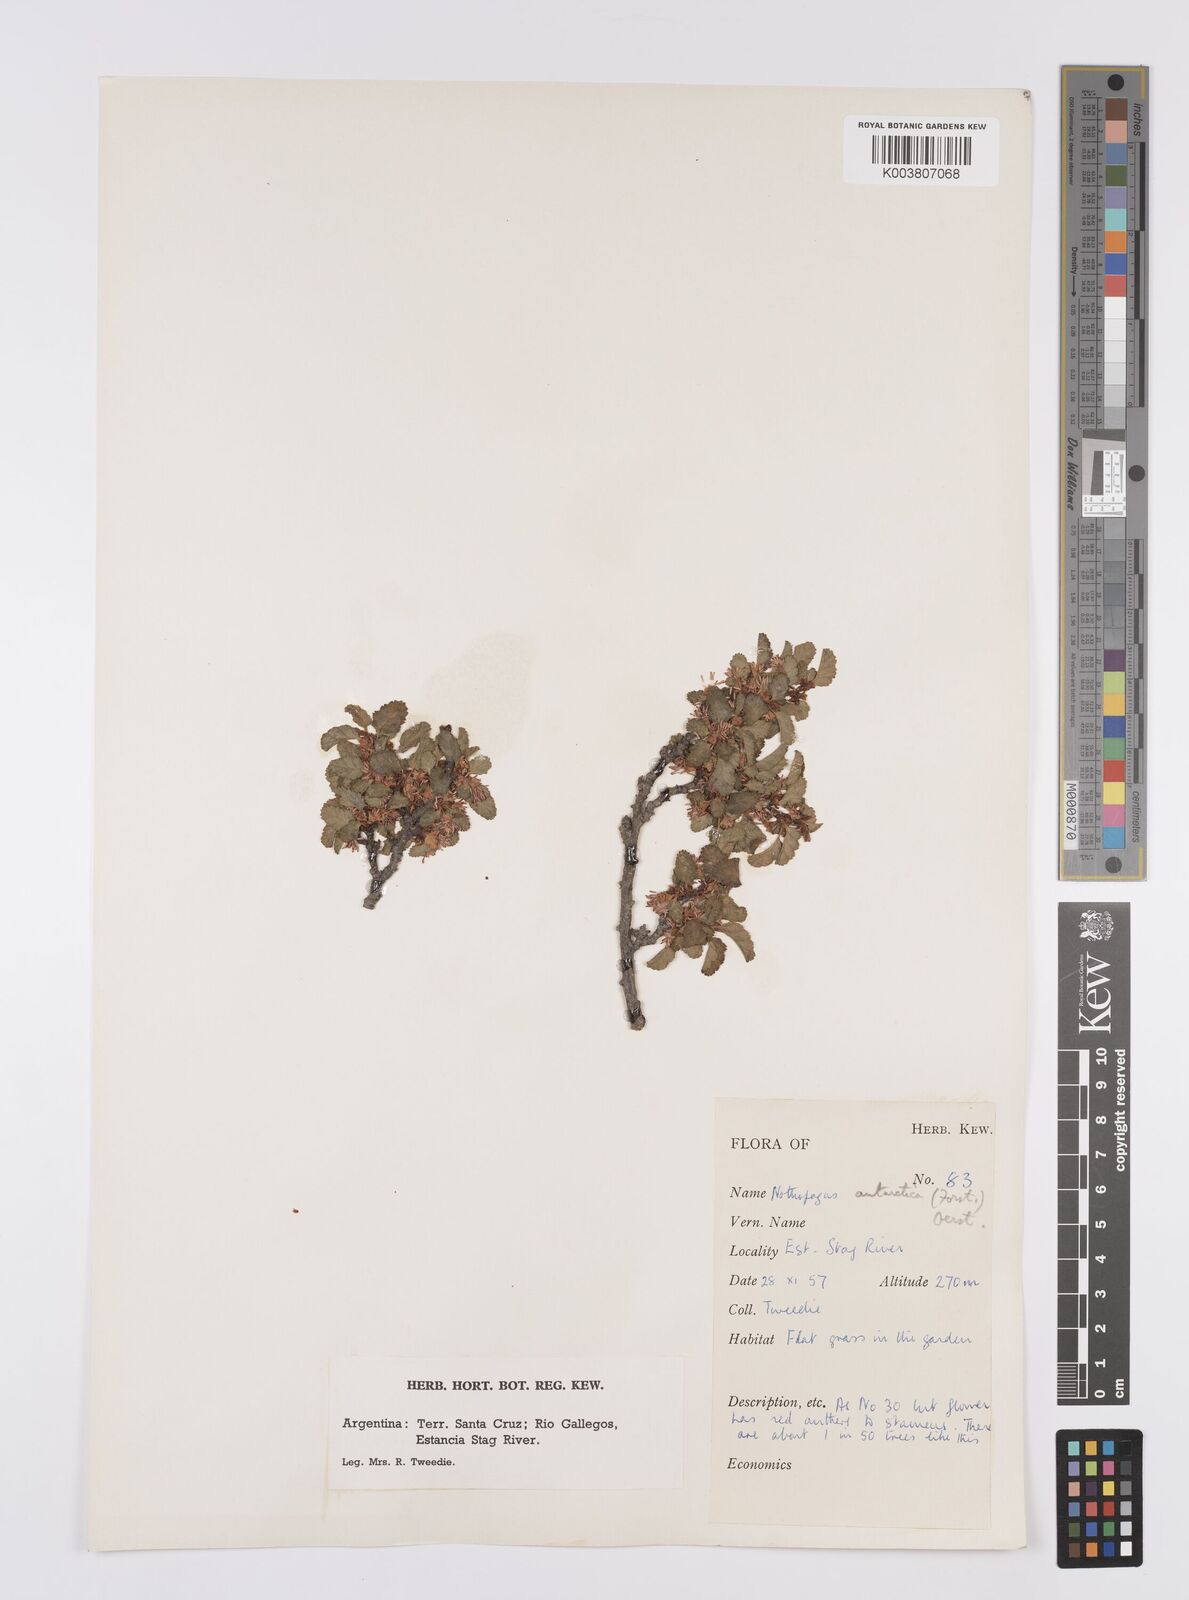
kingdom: Plantae
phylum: Tracheophyta
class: Magnoliopsida
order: Fagales
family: Nothofagaceae
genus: Nothofagus
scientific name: Nothofagus antarctica
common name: Antarctic beech
